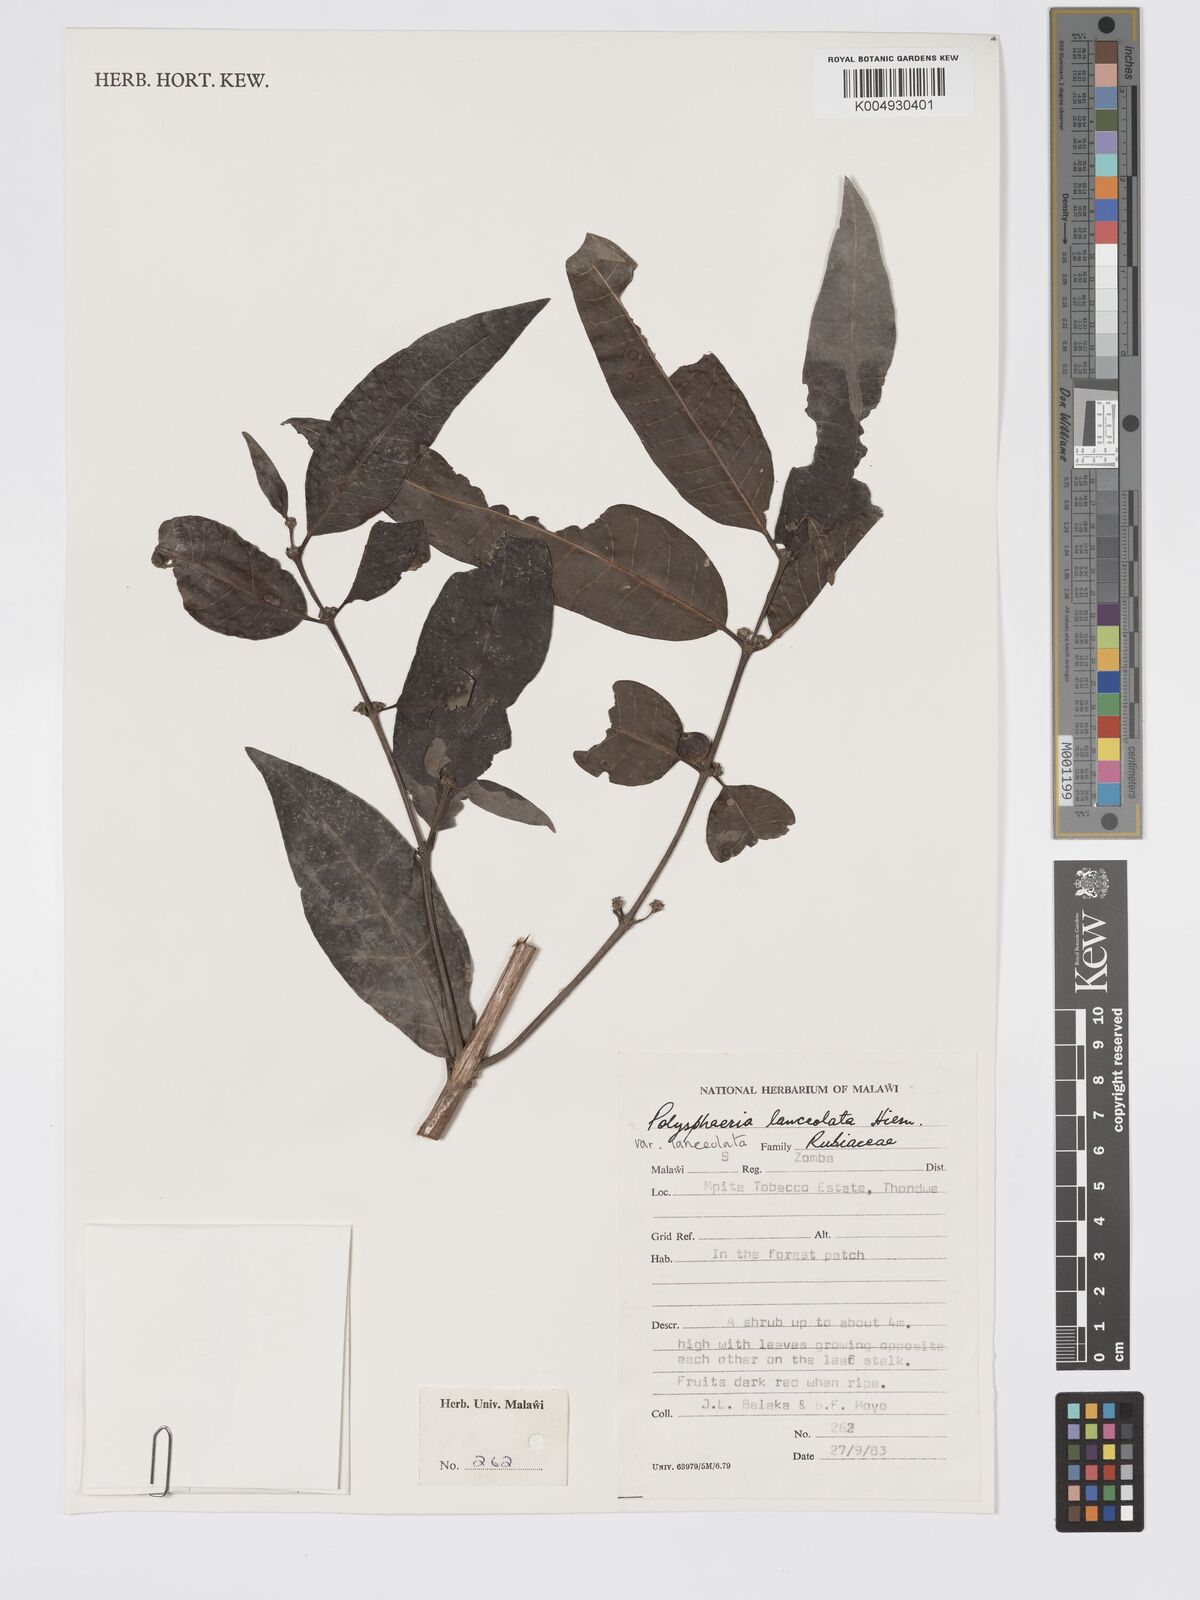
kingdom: Plantae
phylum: Tracheophyta
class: Magnoliopsida
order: Gentianales
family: Rubiaceae
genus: Polysphaeria
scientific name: Polysphaeria lanceolata
